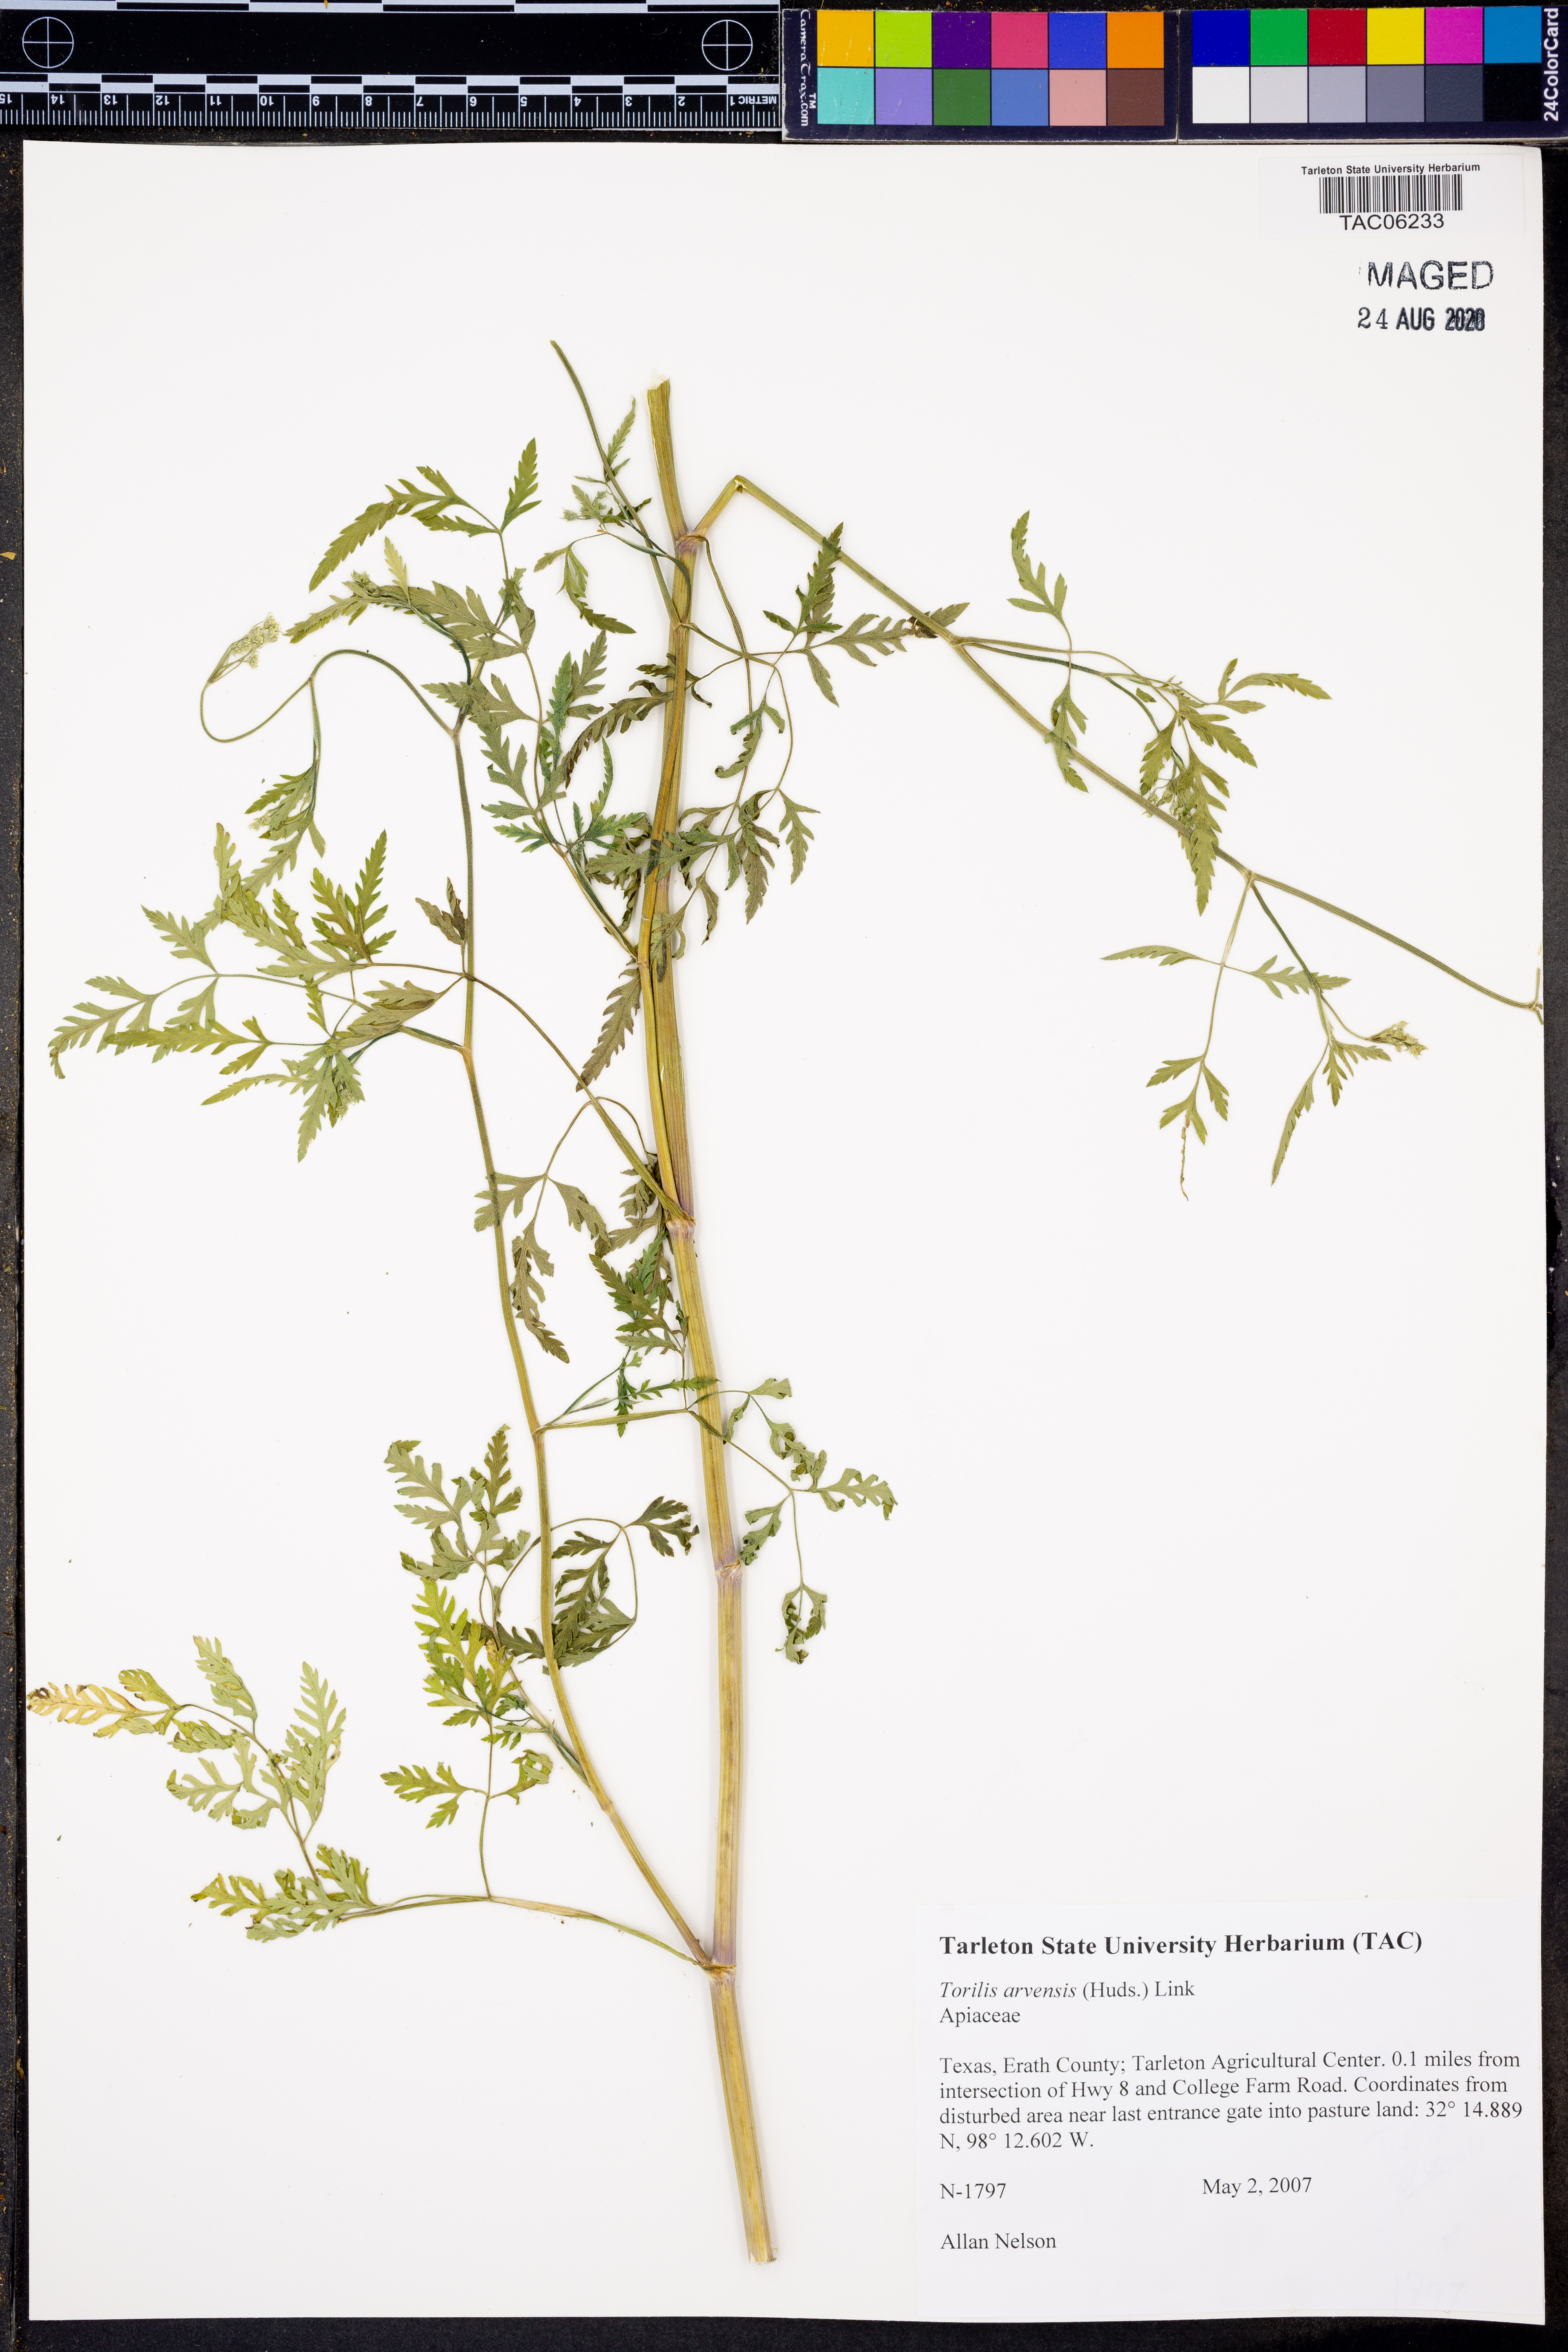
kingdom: Plantae
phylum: Tracheophyta
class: Magnoliopsida
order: Apiales
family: Apiaceae
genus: Torilis
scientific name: Torilis arvensis
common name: Spreading hedge-parsley
